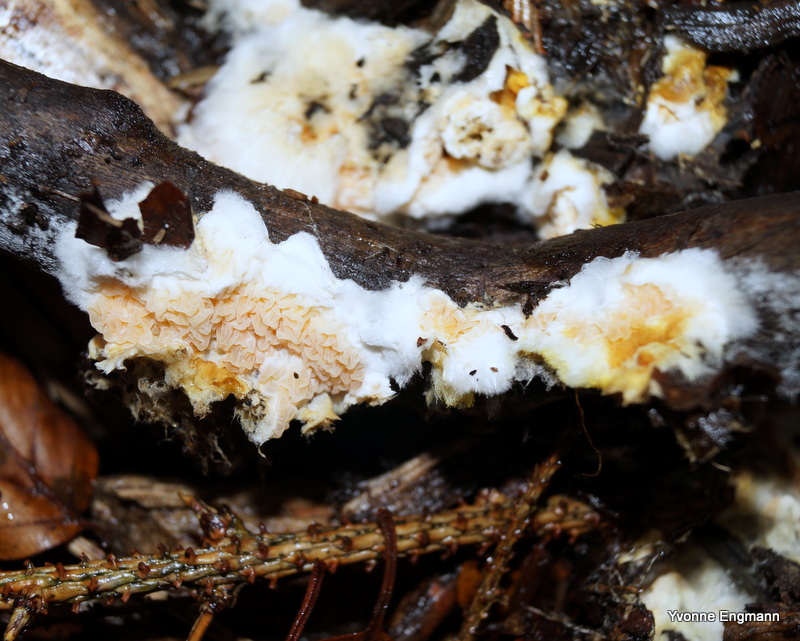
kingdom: Fungi
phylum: Basidiomycota
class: Agaricomycetes
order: Boletales
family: Hygrophoropsidaceae
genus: Leucogyrophana
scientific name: Leucogyrophana mollusca
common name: blød hussvamp
